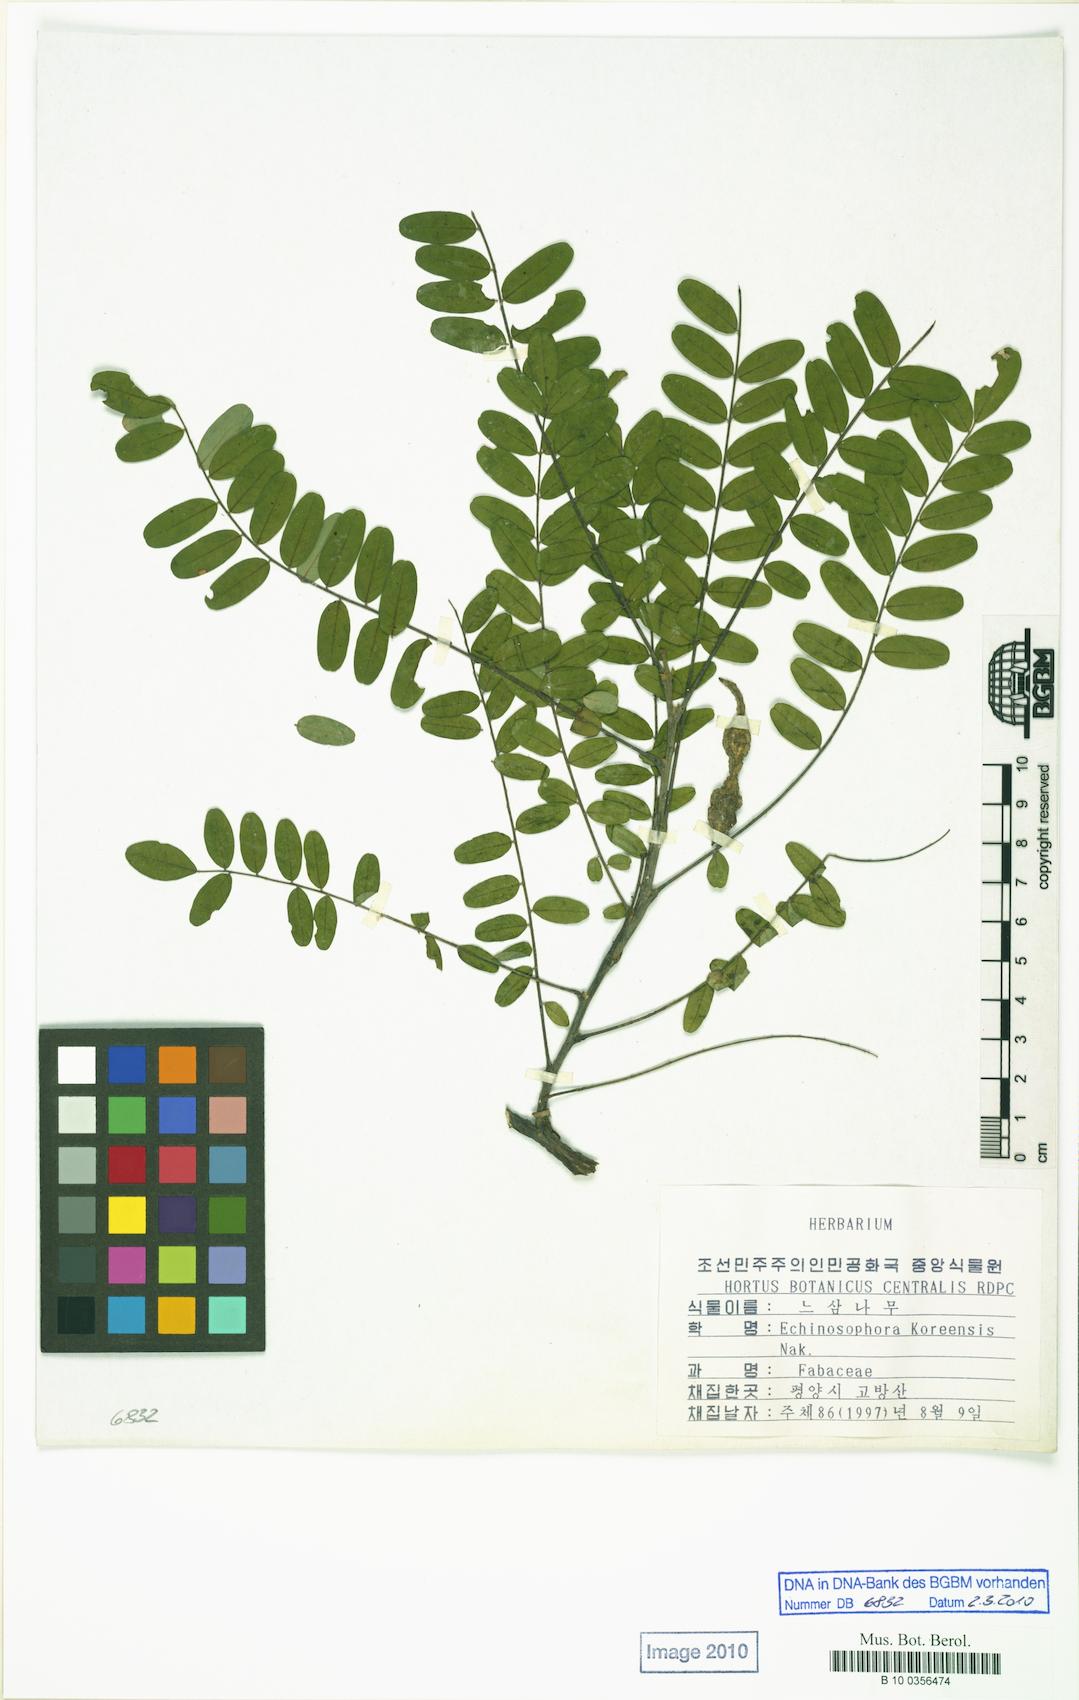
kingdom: Plantae
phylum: Tracheophyta
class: Magnoliopsida
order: Fabales
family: Fabaceae
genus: Sophora
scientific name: Sophora koreensis
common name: Korean necklace-pod
